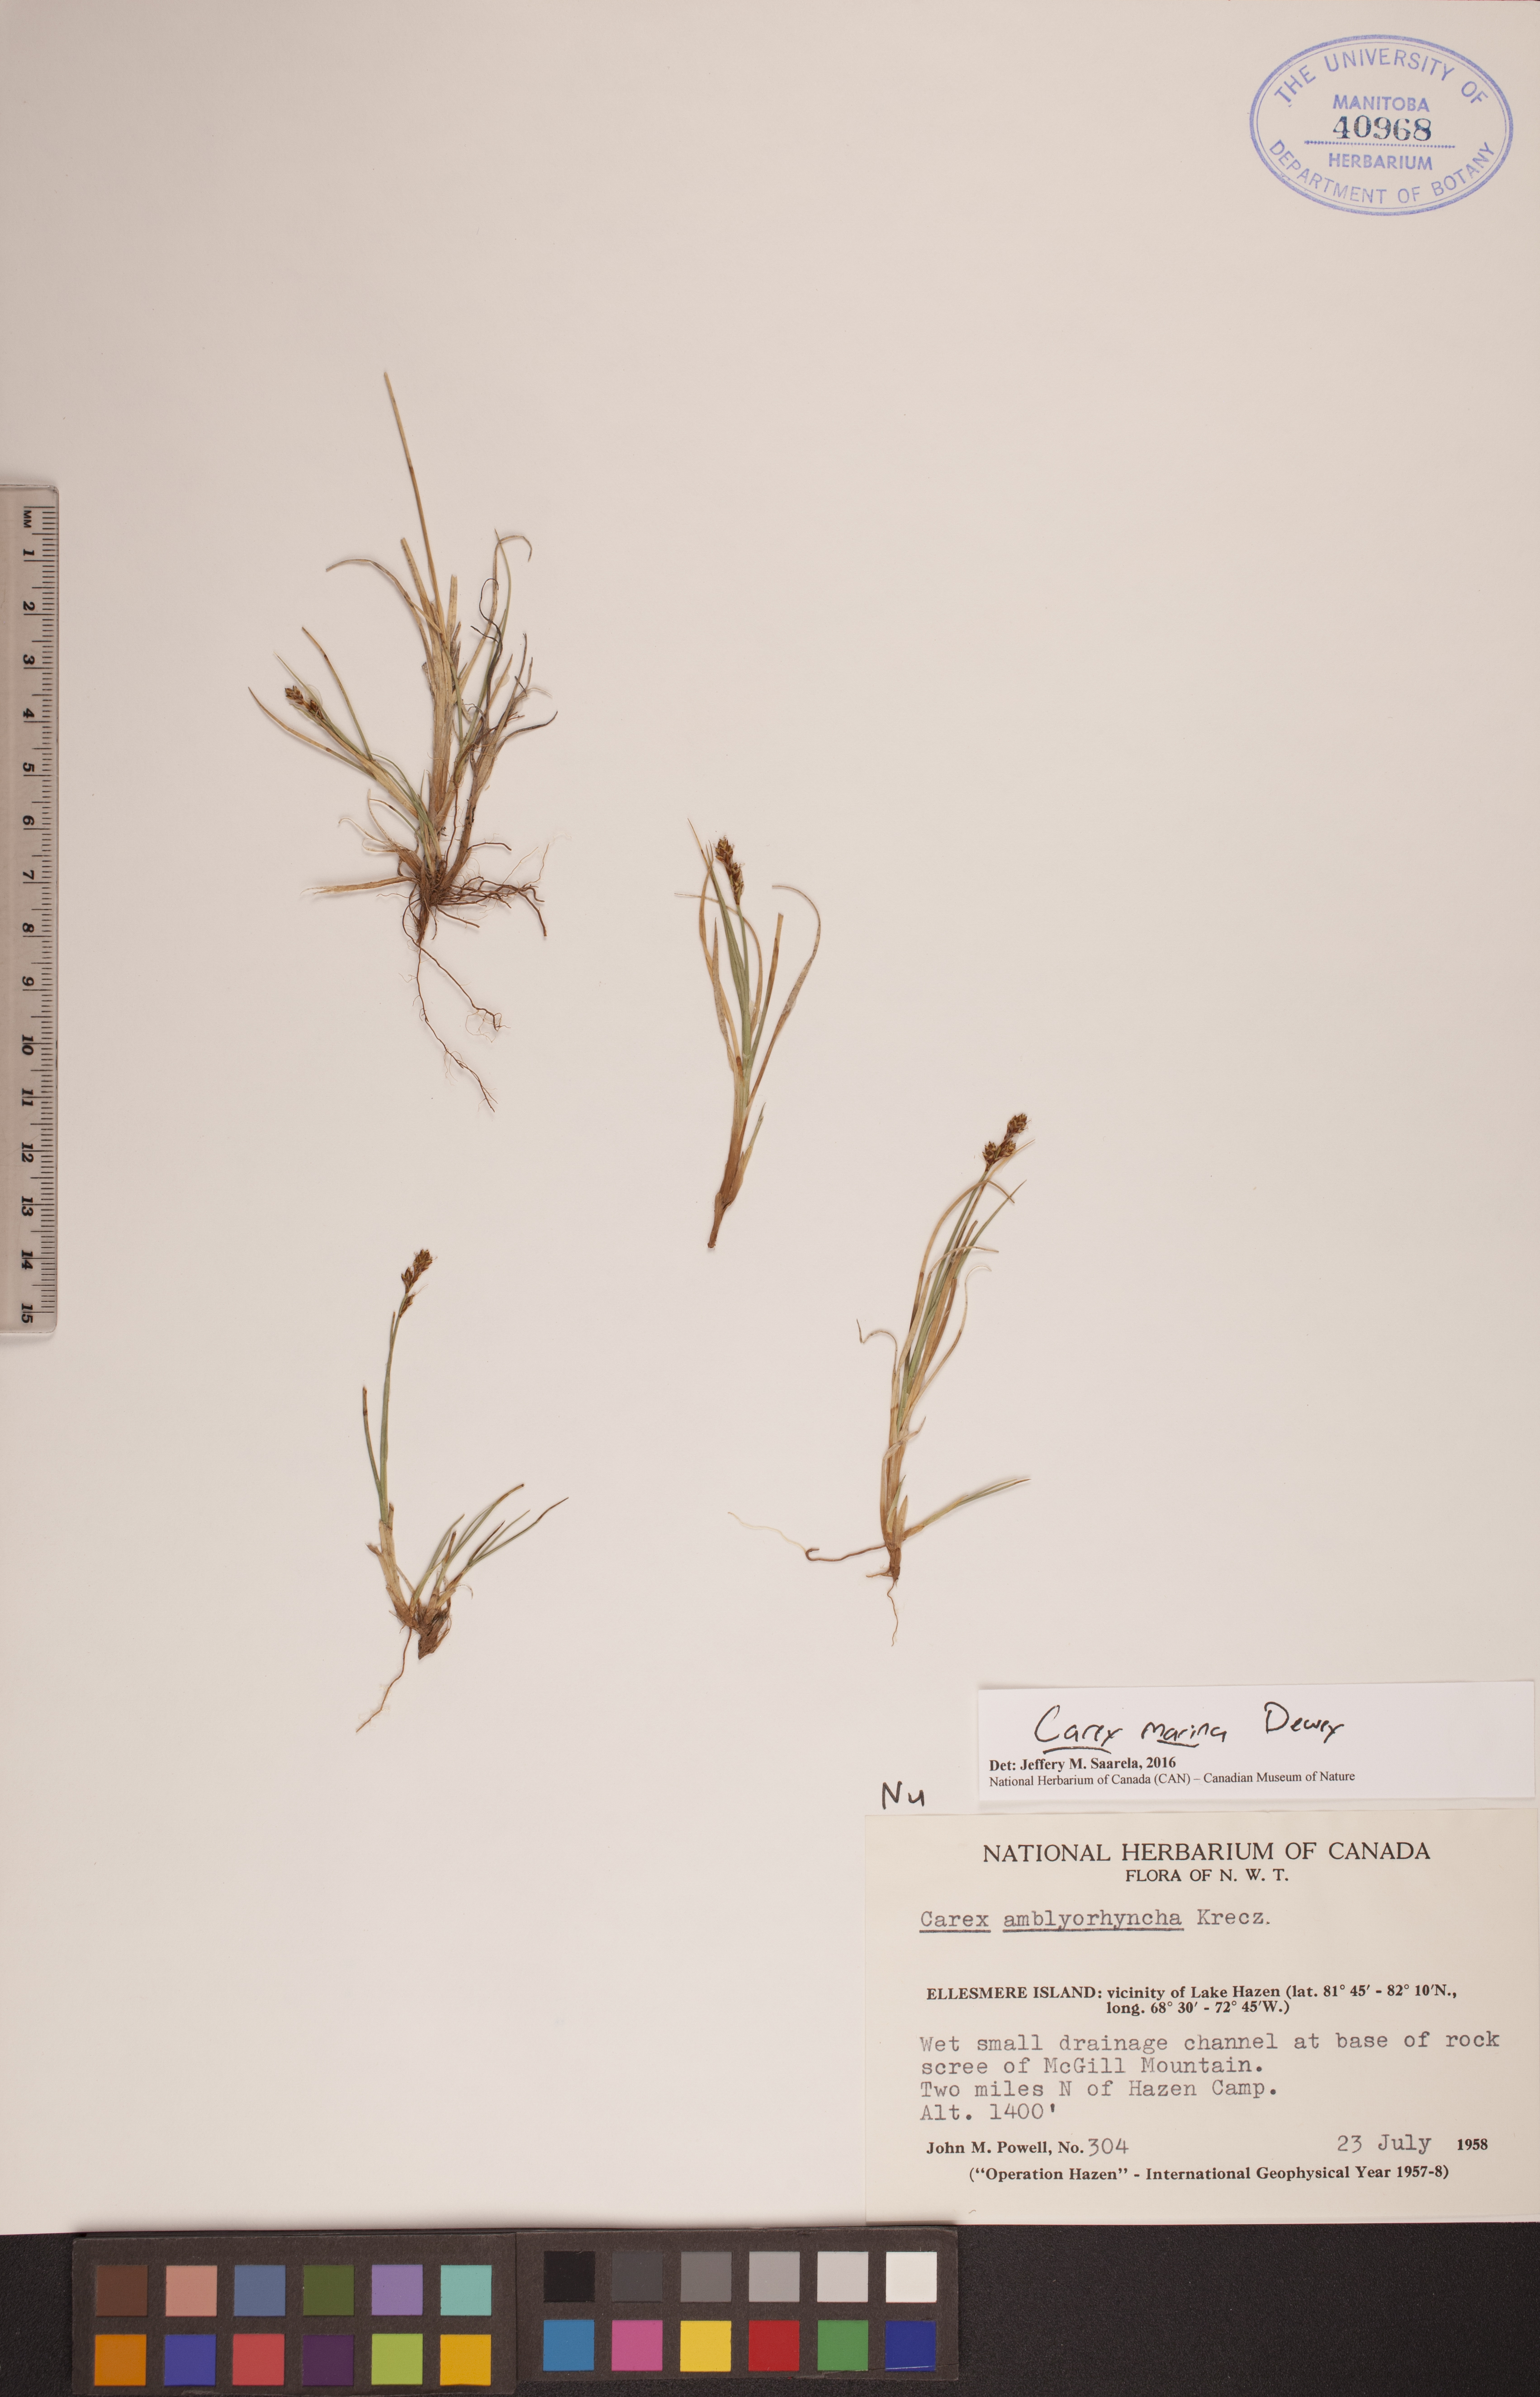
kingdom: Plantae
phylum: Tracheophyta
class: Liliopsida
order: Poales
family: Cyperaceae
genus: Carex
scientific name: Carex marina
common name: Seashore sedge
